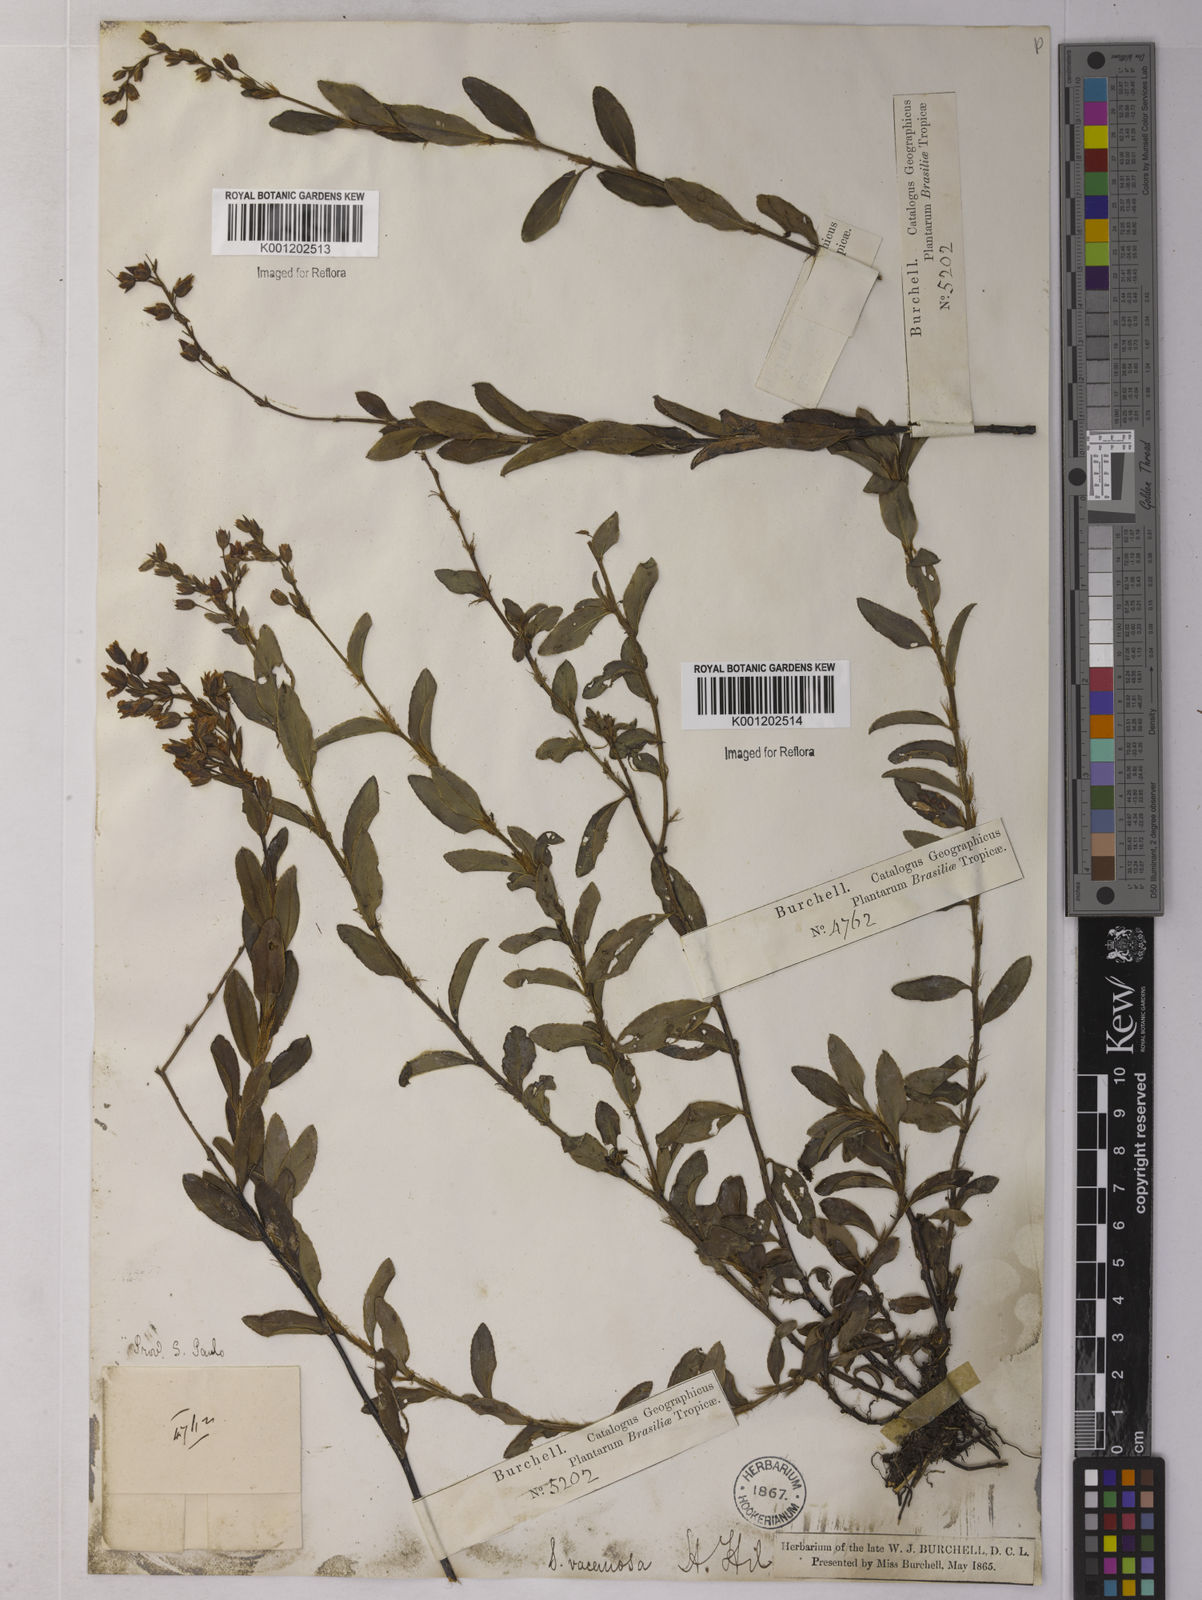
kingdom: Plantae
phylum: Tracheophyta
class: Magnoliopsida
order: Malpighiales
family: Ochnaceae
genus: Sauvagesia
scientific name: Sauvagesia racemosa
